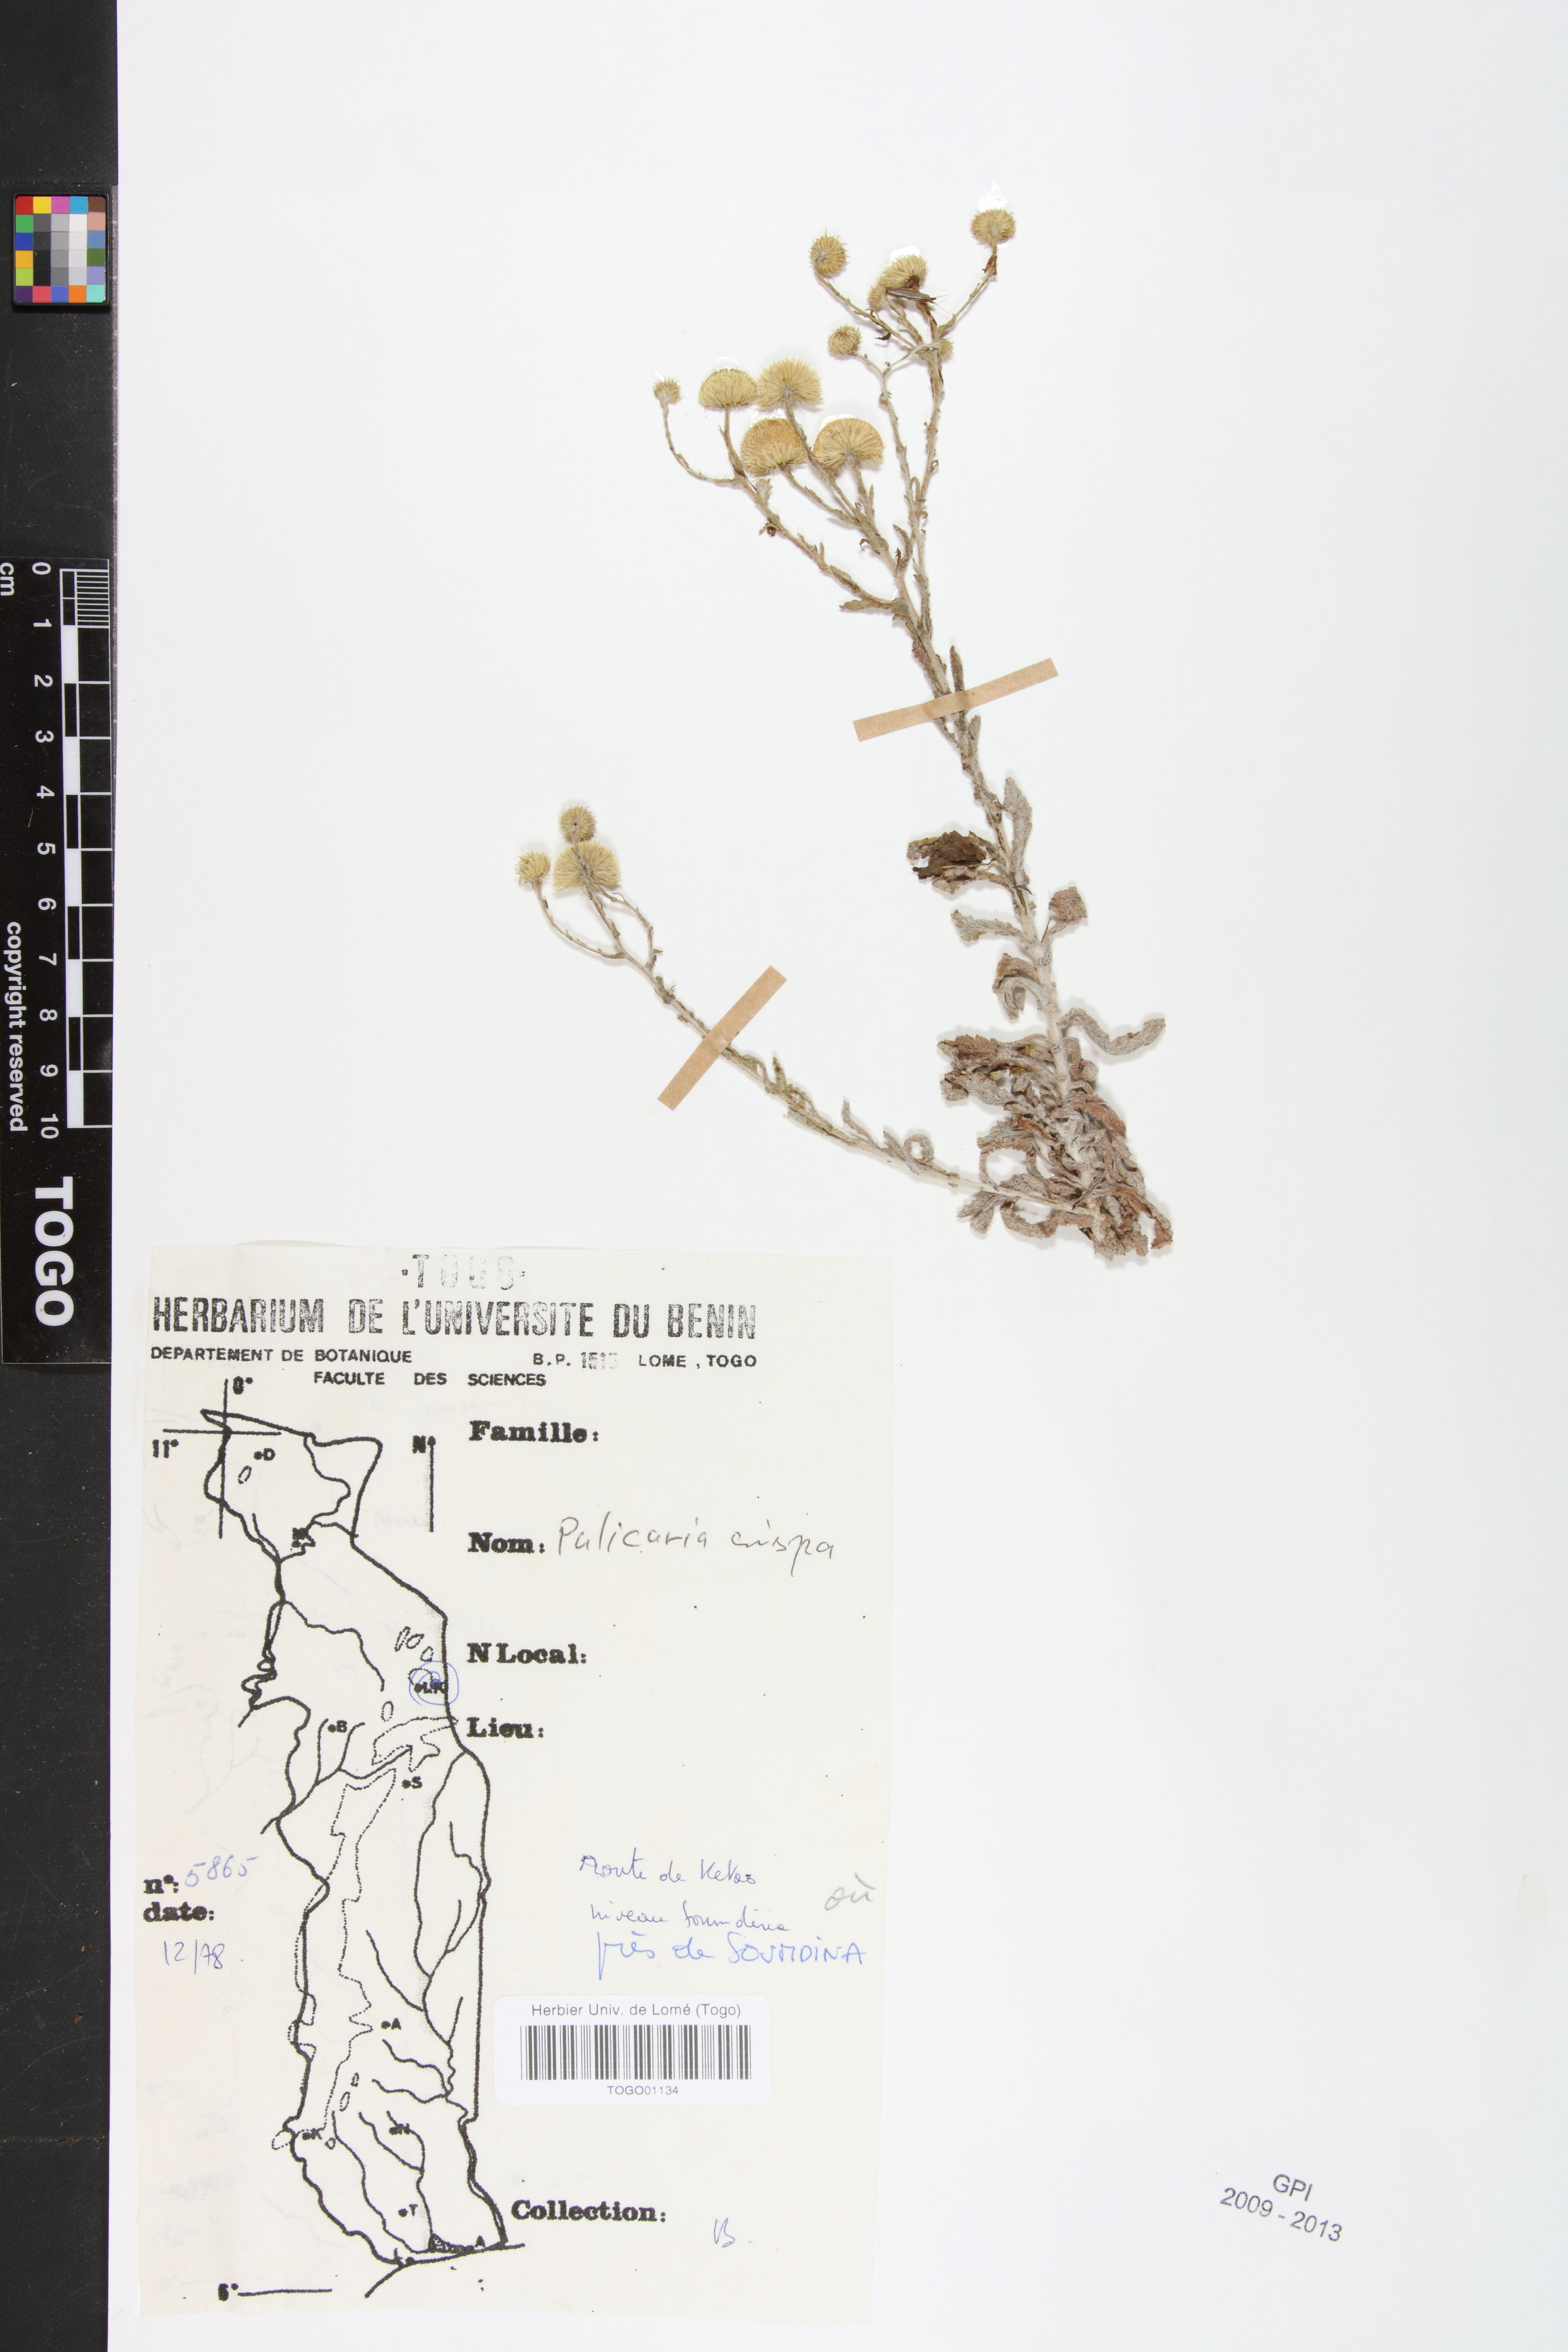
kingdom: Plantae
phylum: Tracheophyta
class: Magnoliopsida
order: Asterales
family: Asteraceae
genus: Pulicaria
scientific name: Pulicaria undulata
